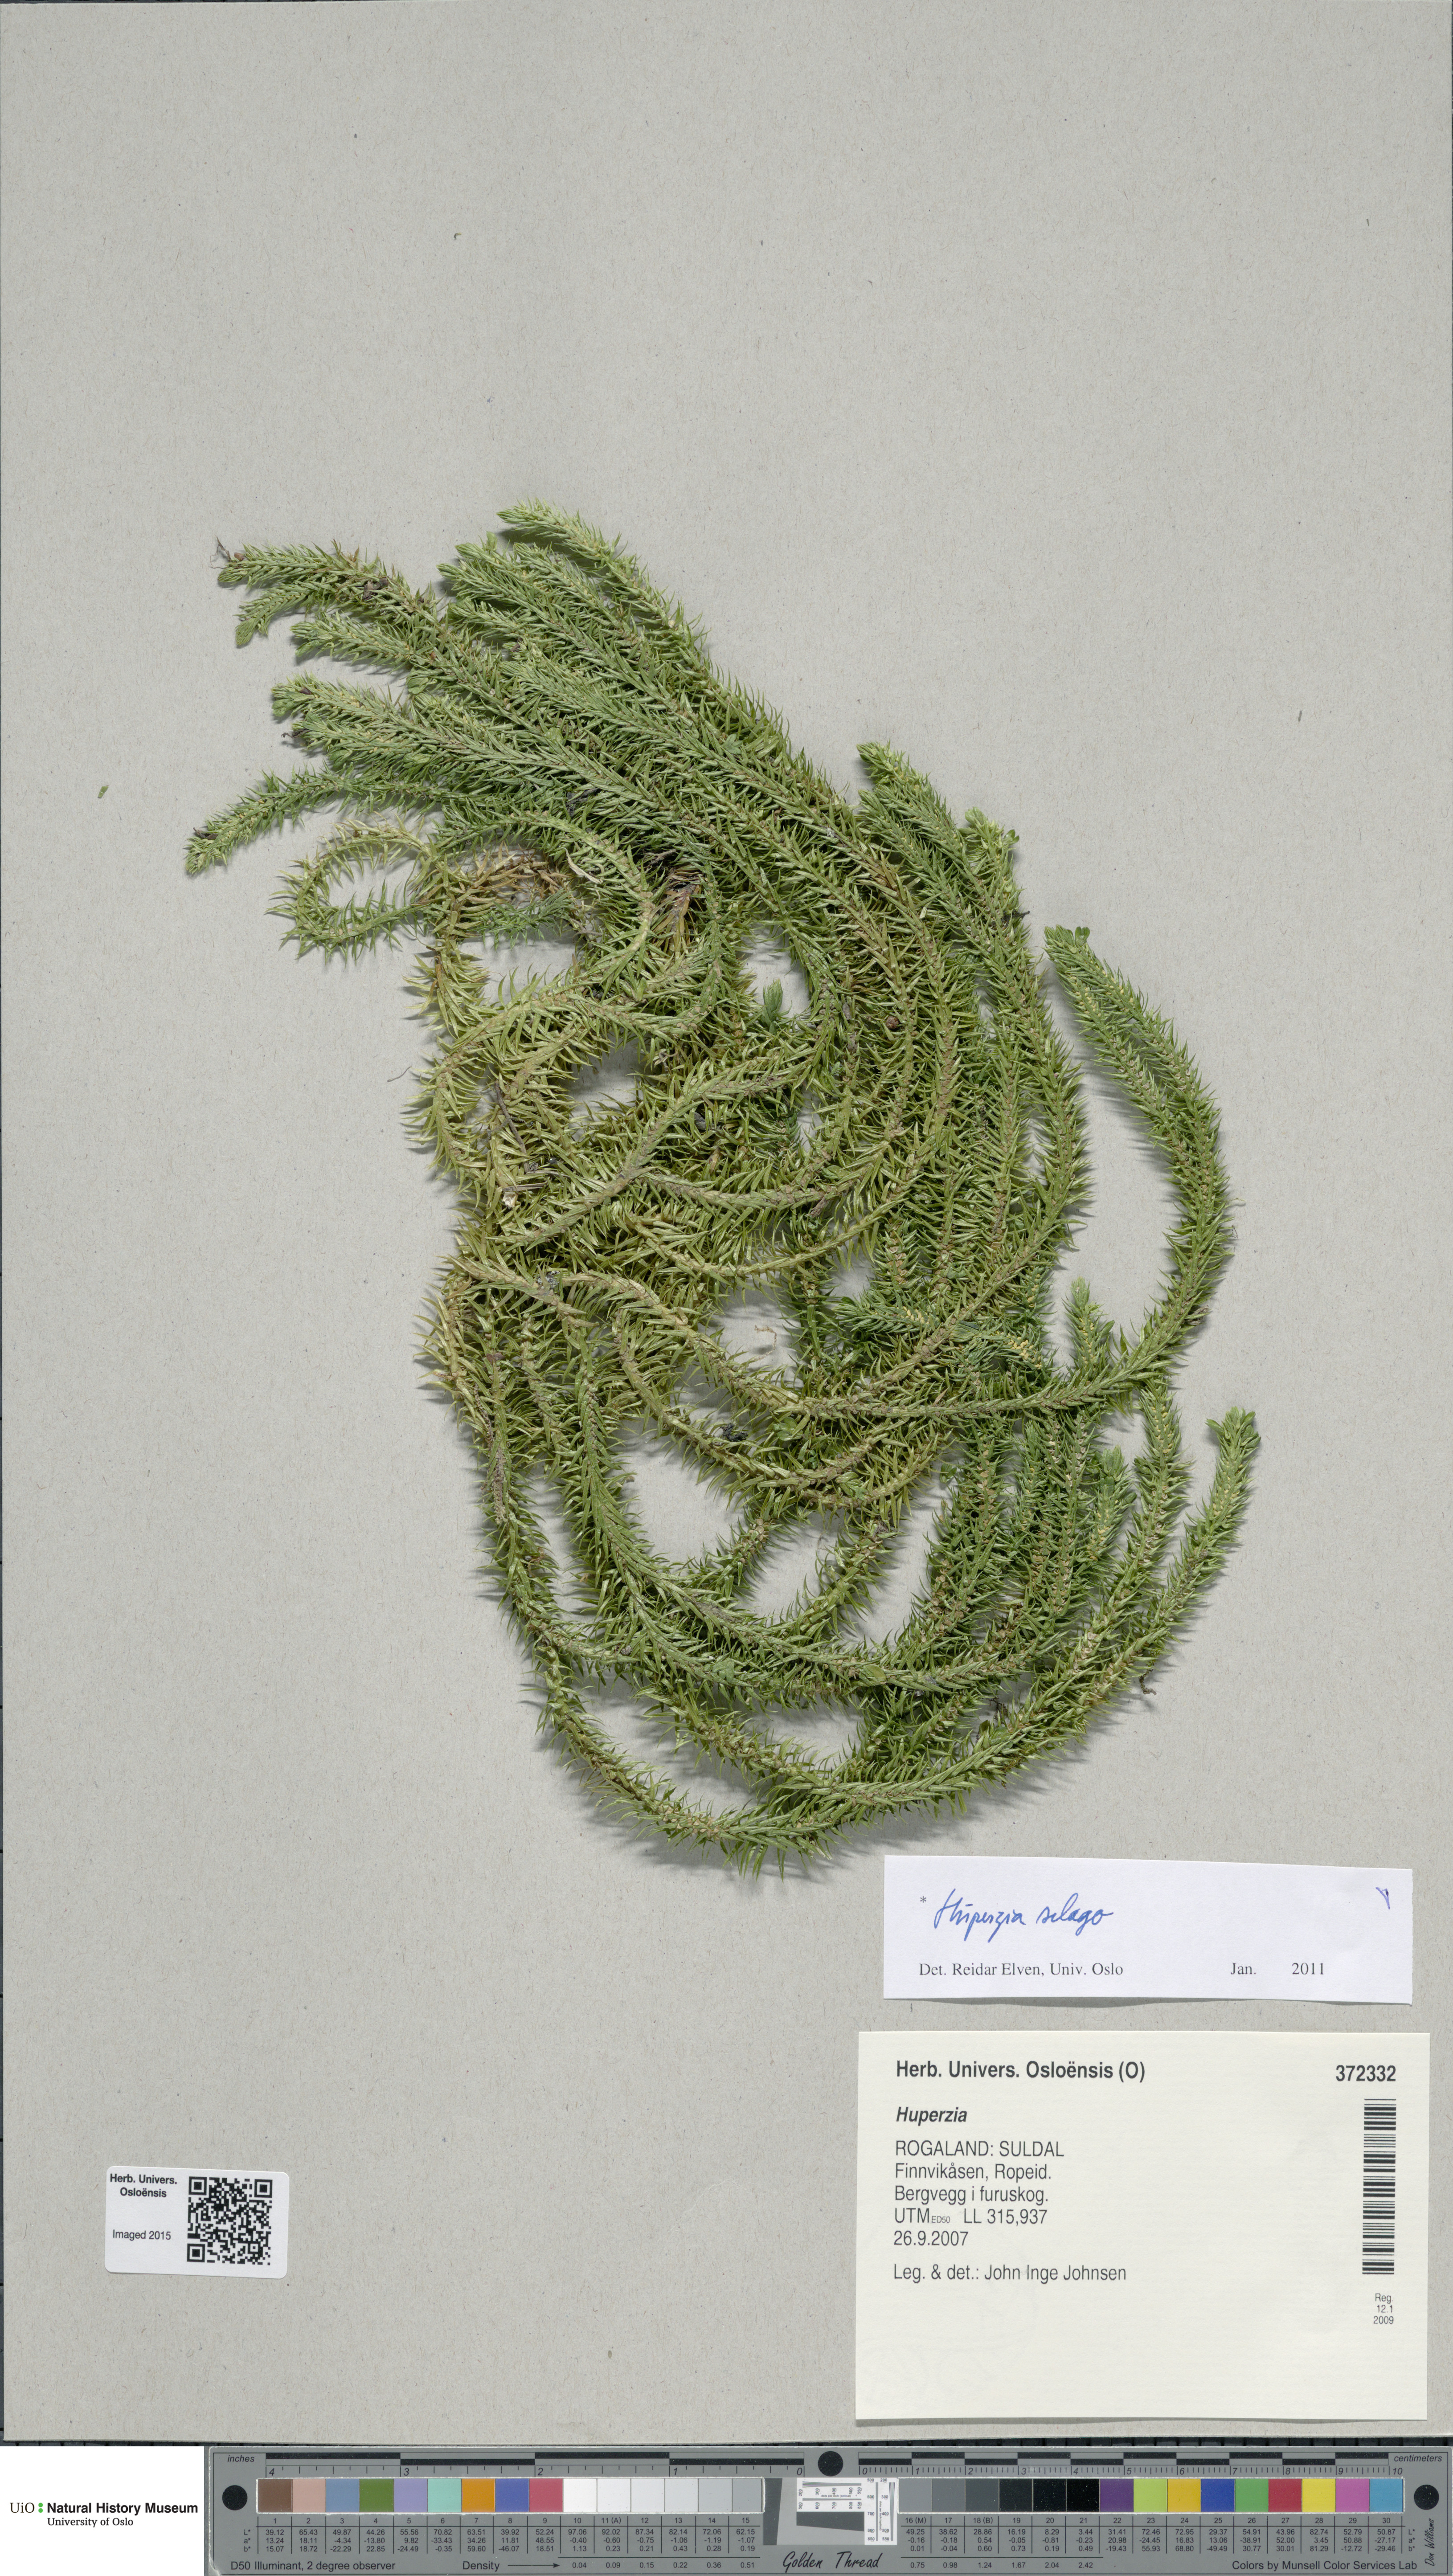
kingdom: Plantae
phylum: Tracheophyta
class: Lycopodiopsida
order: Lycopodiales
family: Lycopodiaceae
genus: Huperzia
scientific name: Huperzia selago
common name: Northern firmoss
